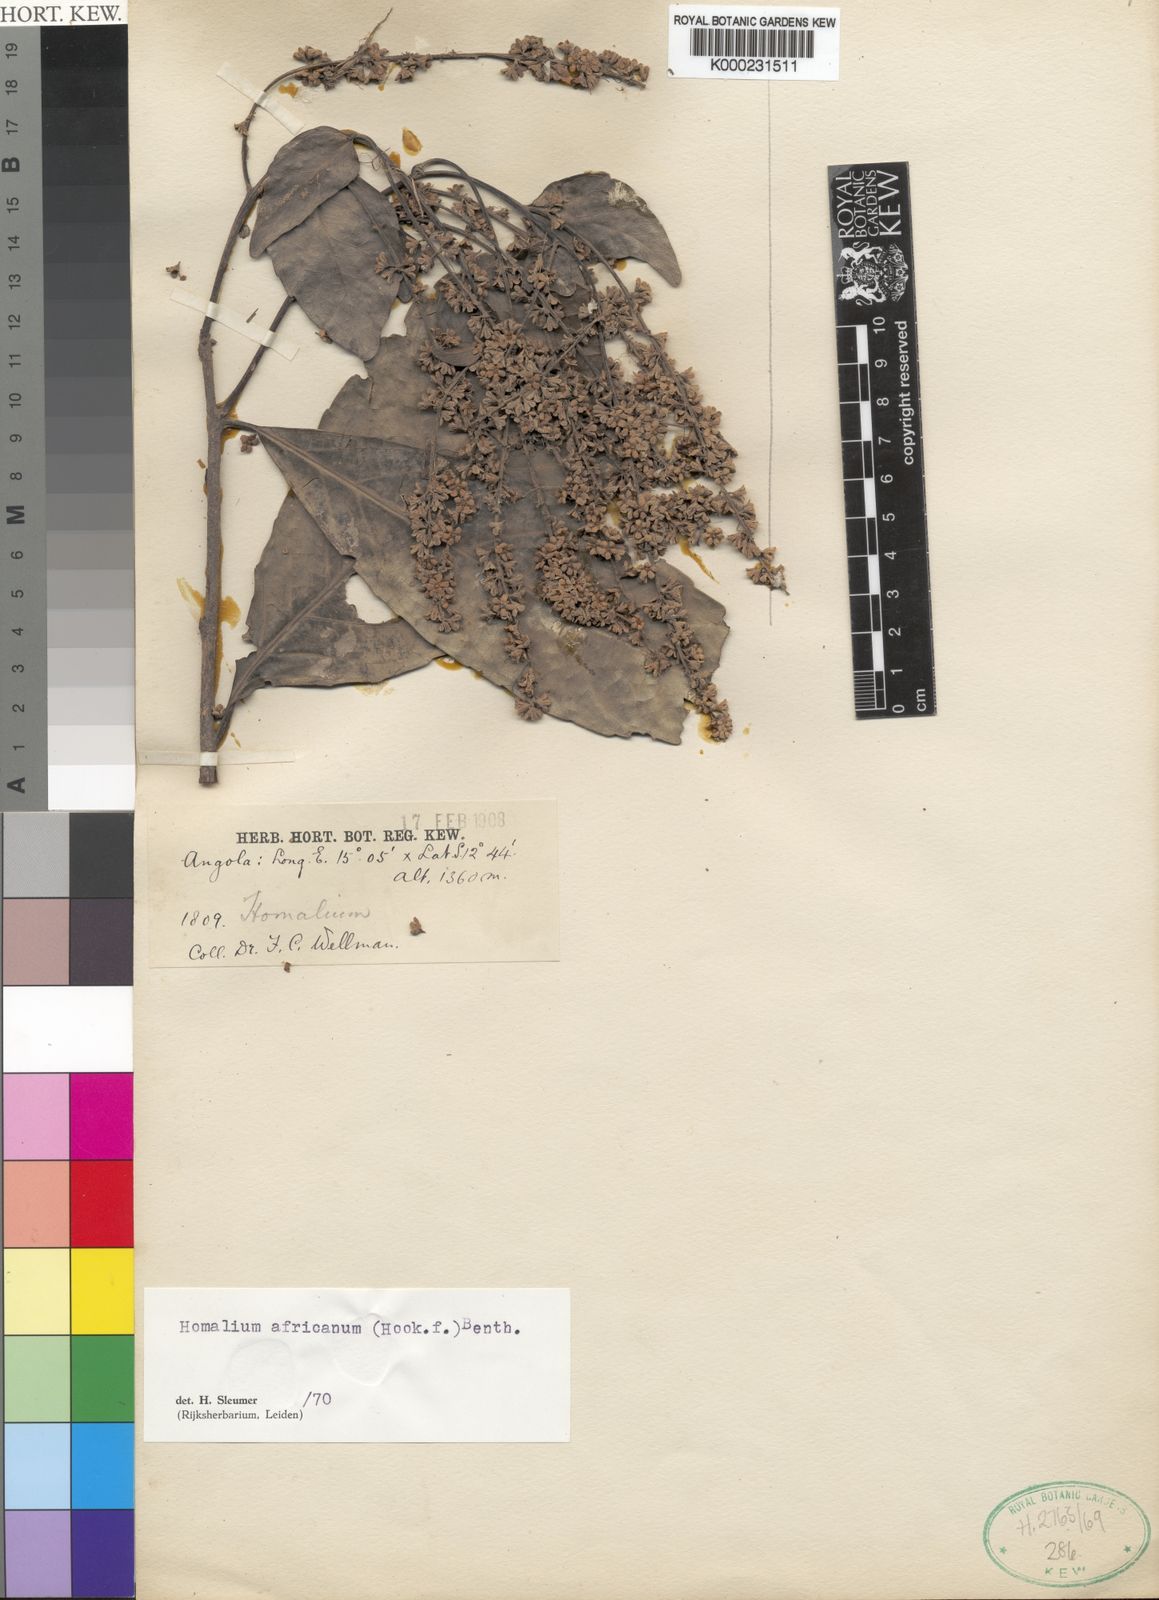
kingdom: Plantae
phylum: Tracheophyta
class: Magnoliopsida
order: Malpighiales
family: Salicaceae
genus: Homalium
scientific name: Homalium africanum
